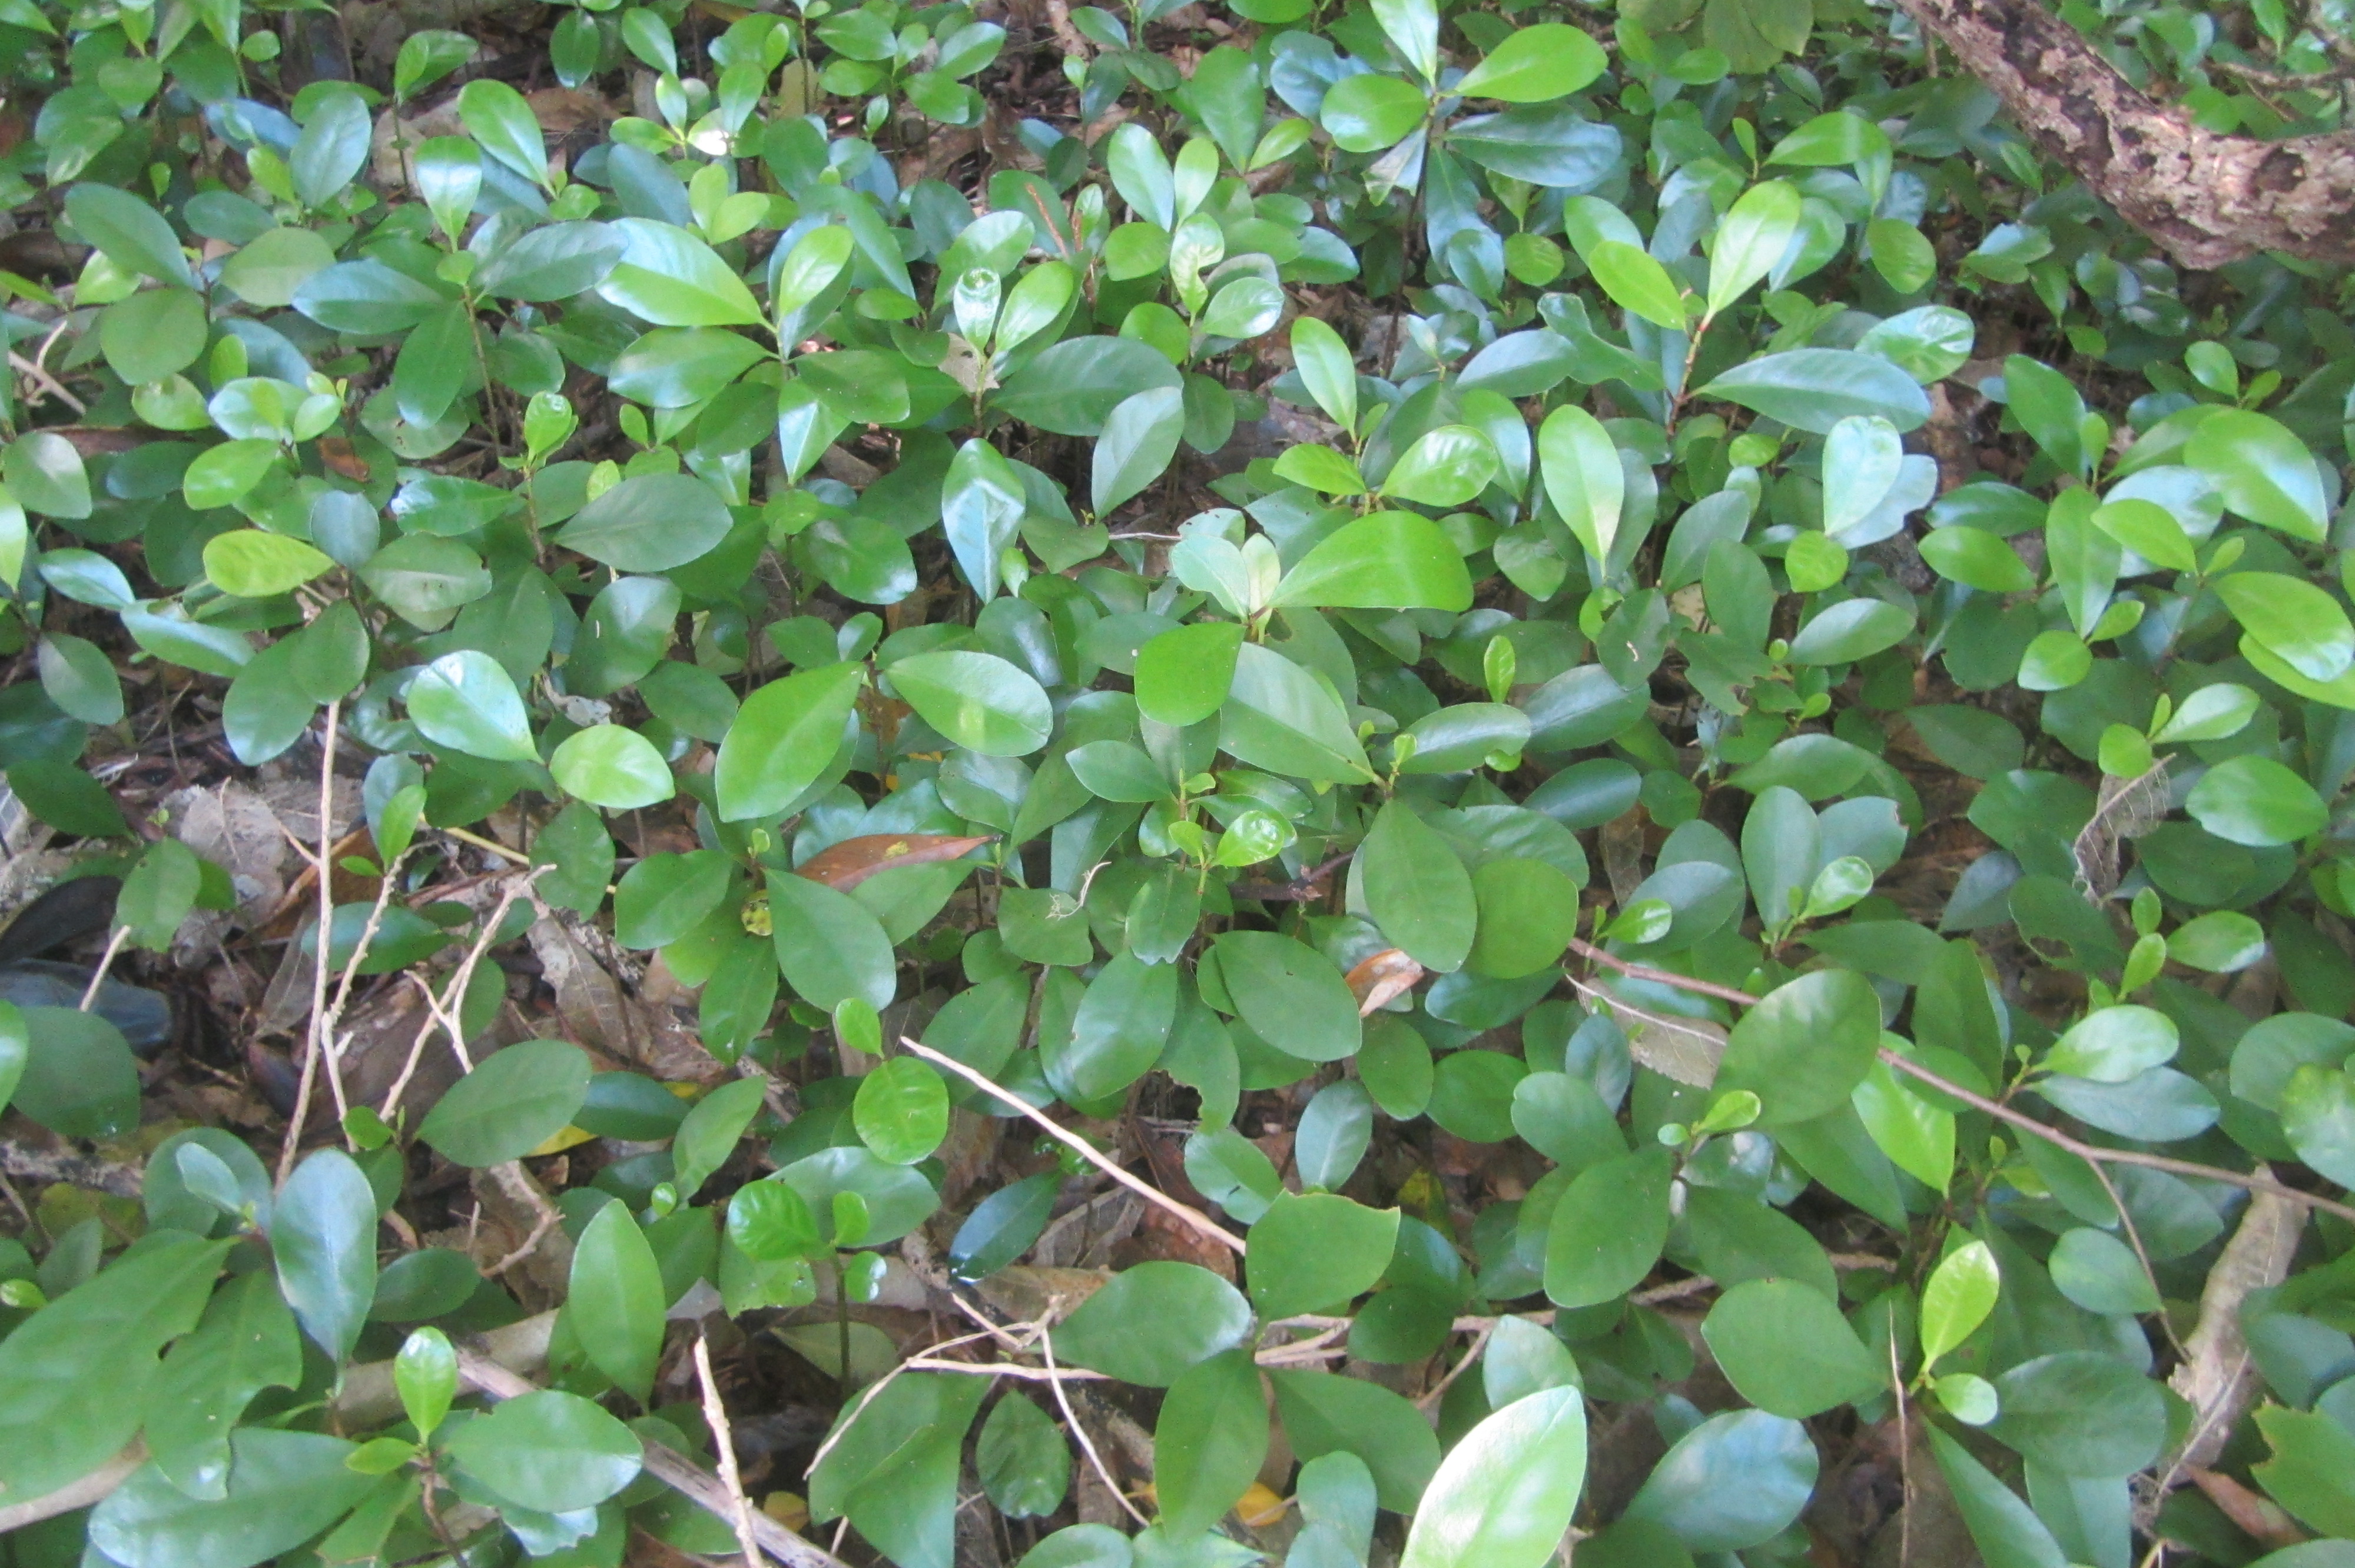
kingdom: Plantae
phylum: Tracheophyta
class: Magnoliopsida
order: Cucurbitales
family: Corynocarpaceae
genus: Corynocarpus
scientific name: Corynocarpus laevigatus
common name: New zealand laurel
